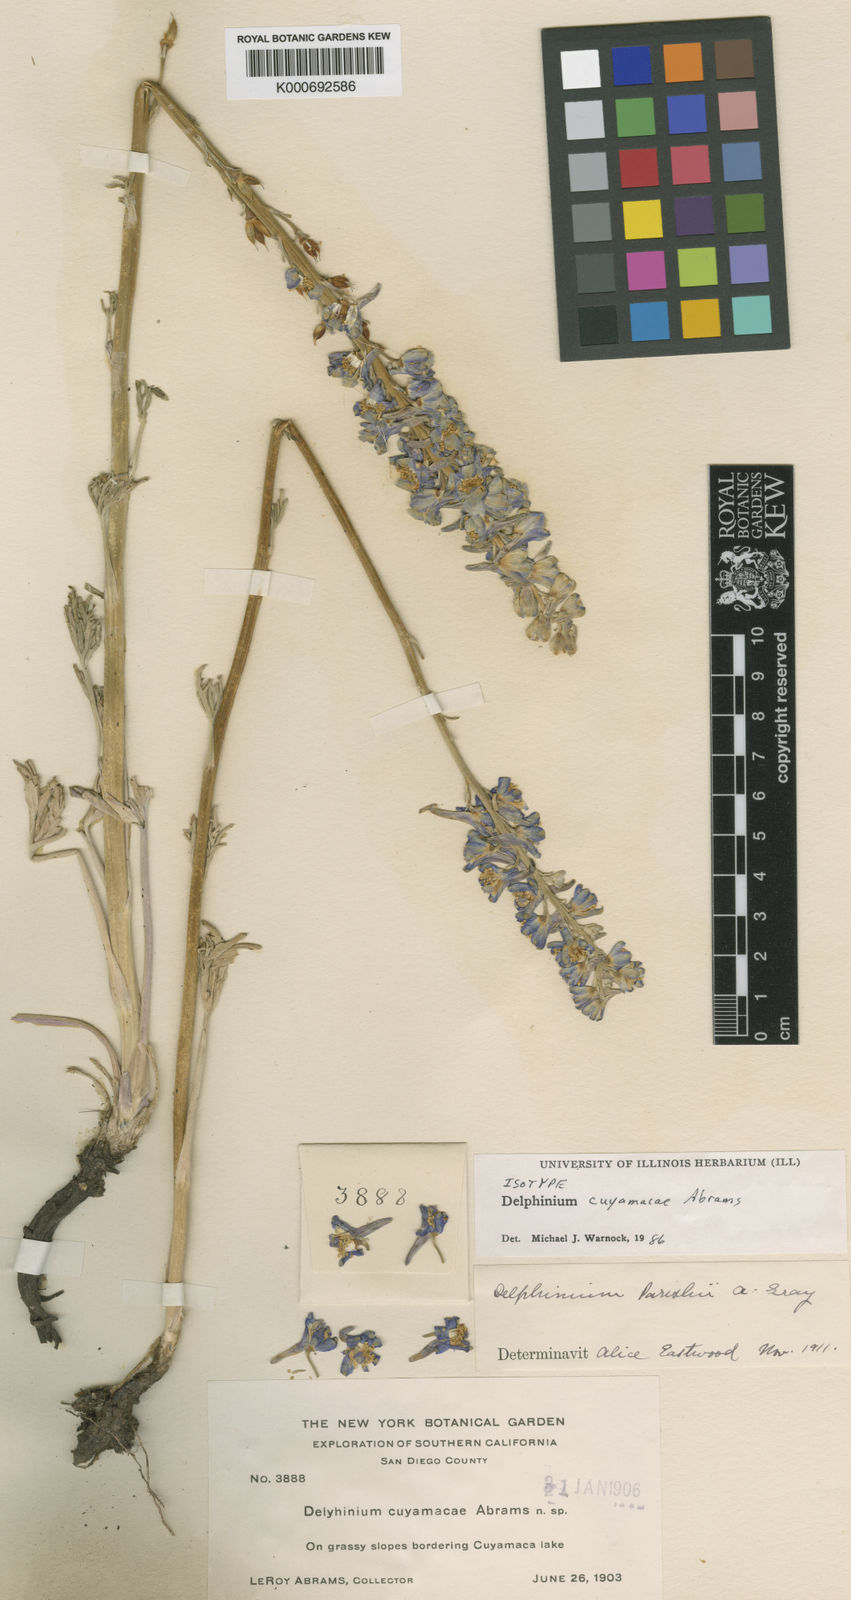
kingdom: Plantae
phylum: Tracheophyta
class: Magnoliopsida
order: Ranunculales
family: Ranunculaceae
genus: Delphinium
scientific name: Delphinium hesperium
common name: Western larkspur
